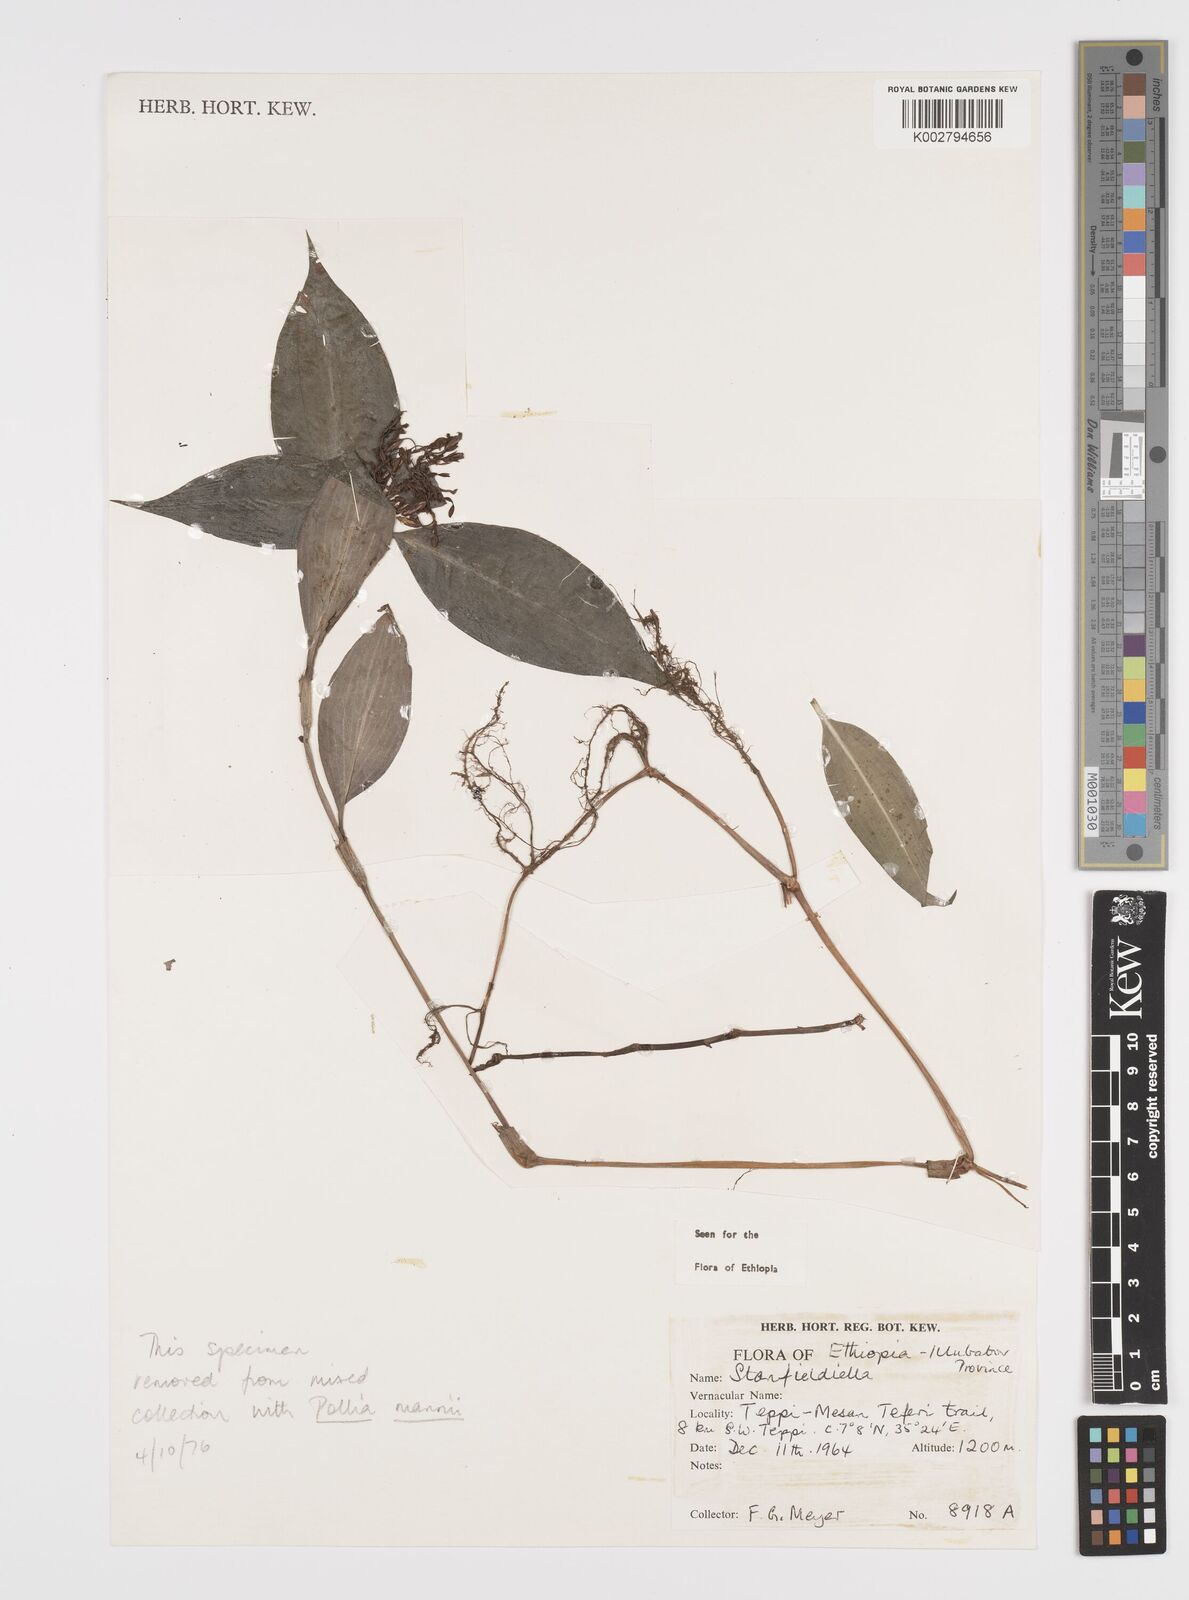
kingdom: Plantae
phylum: Tracheophyta
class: Liliopsida
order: Commelinales
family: Commelinaceae
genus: Stanfieldiella
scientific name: Stanfieldiella imperforata
